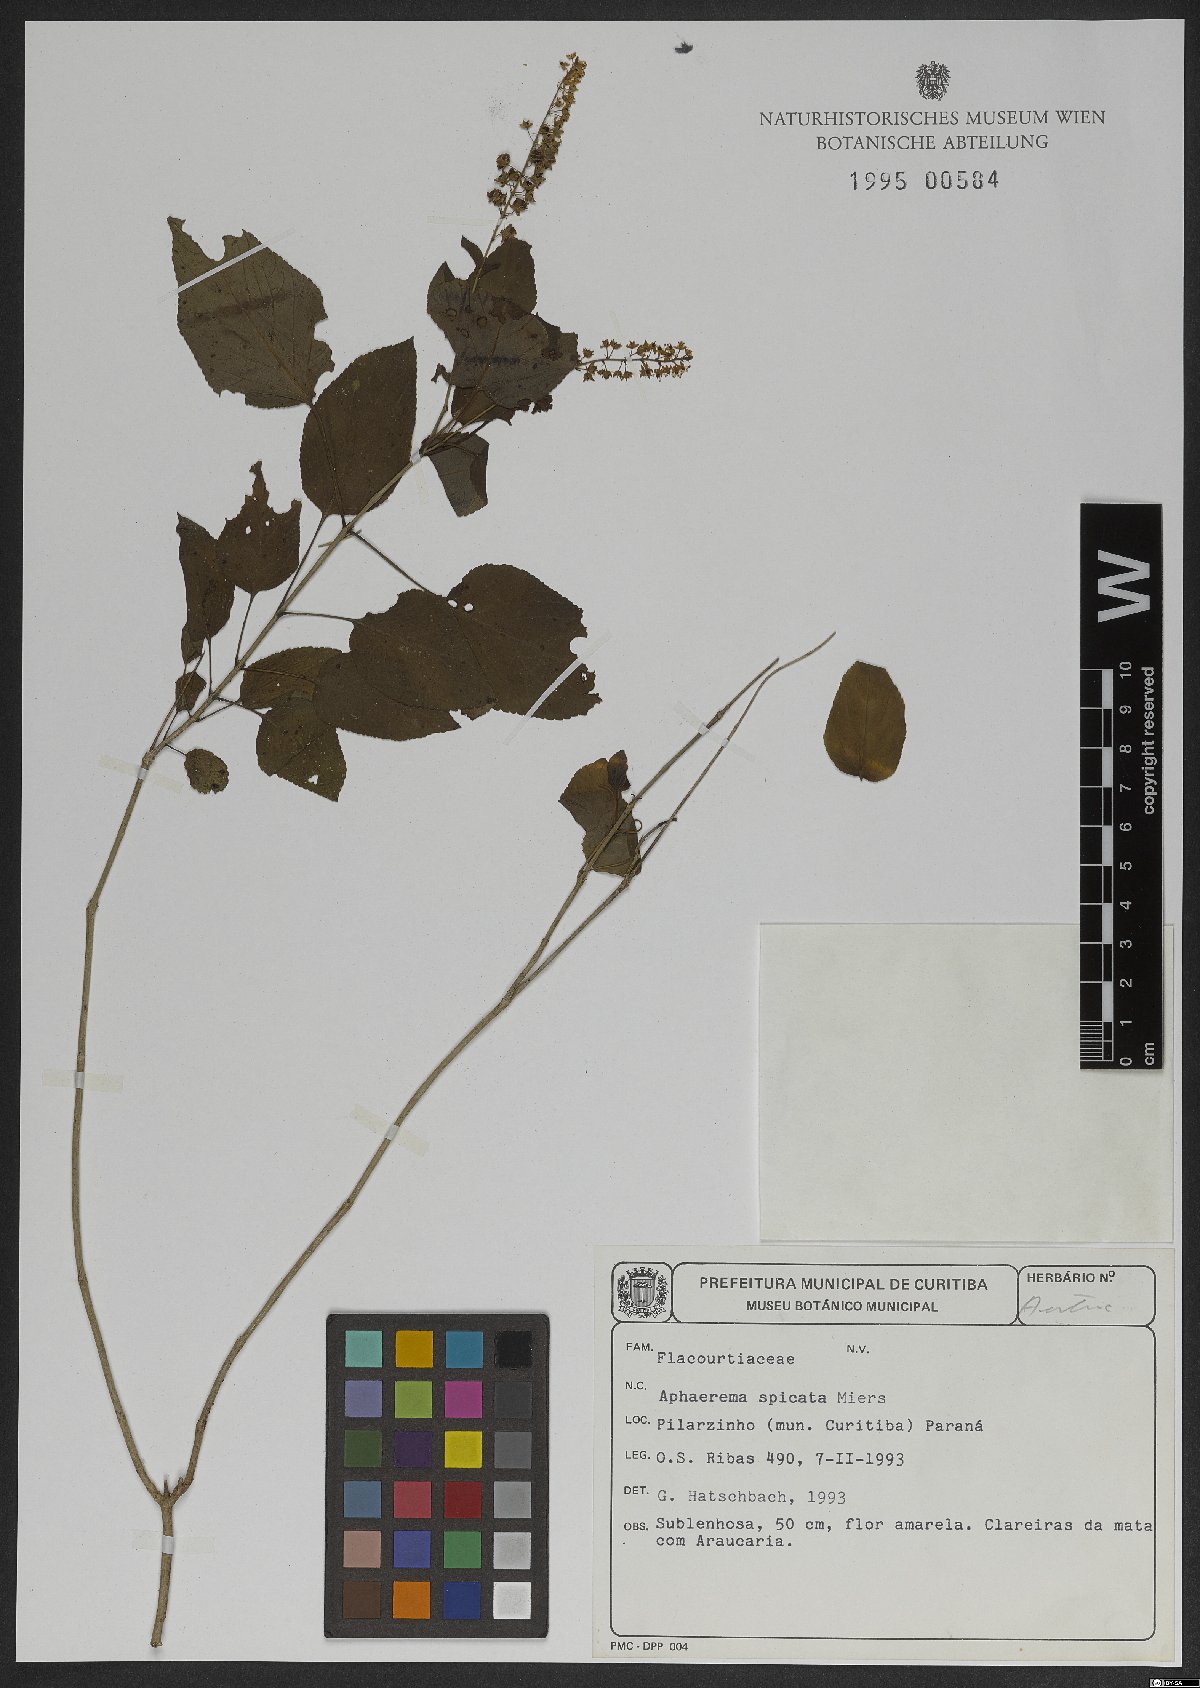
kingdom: Plantae
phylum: Tracheophyta
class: Magnoliopsida
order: Malpighiales
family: Salicaceae
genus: Abatia
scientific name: Abatia angeliana
